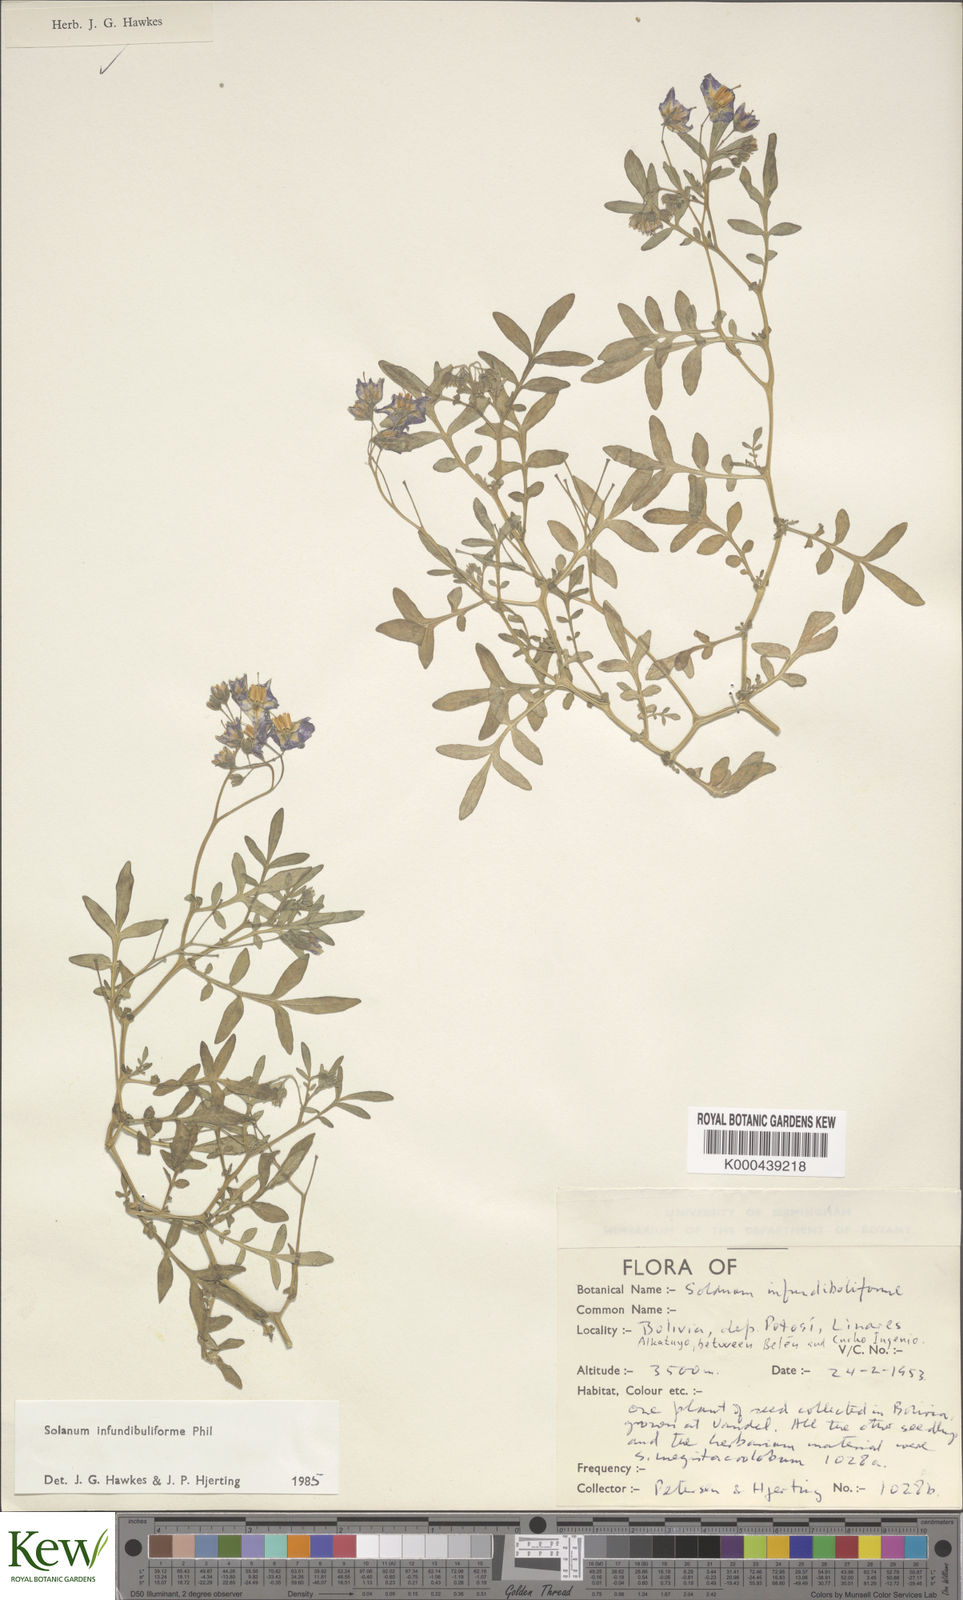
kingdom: Plantae
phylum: Tracheophyta
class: Magnoliopsida
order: Solanales
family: Solanaceae
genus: Solanum
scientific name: Solanum infundibuliforme
